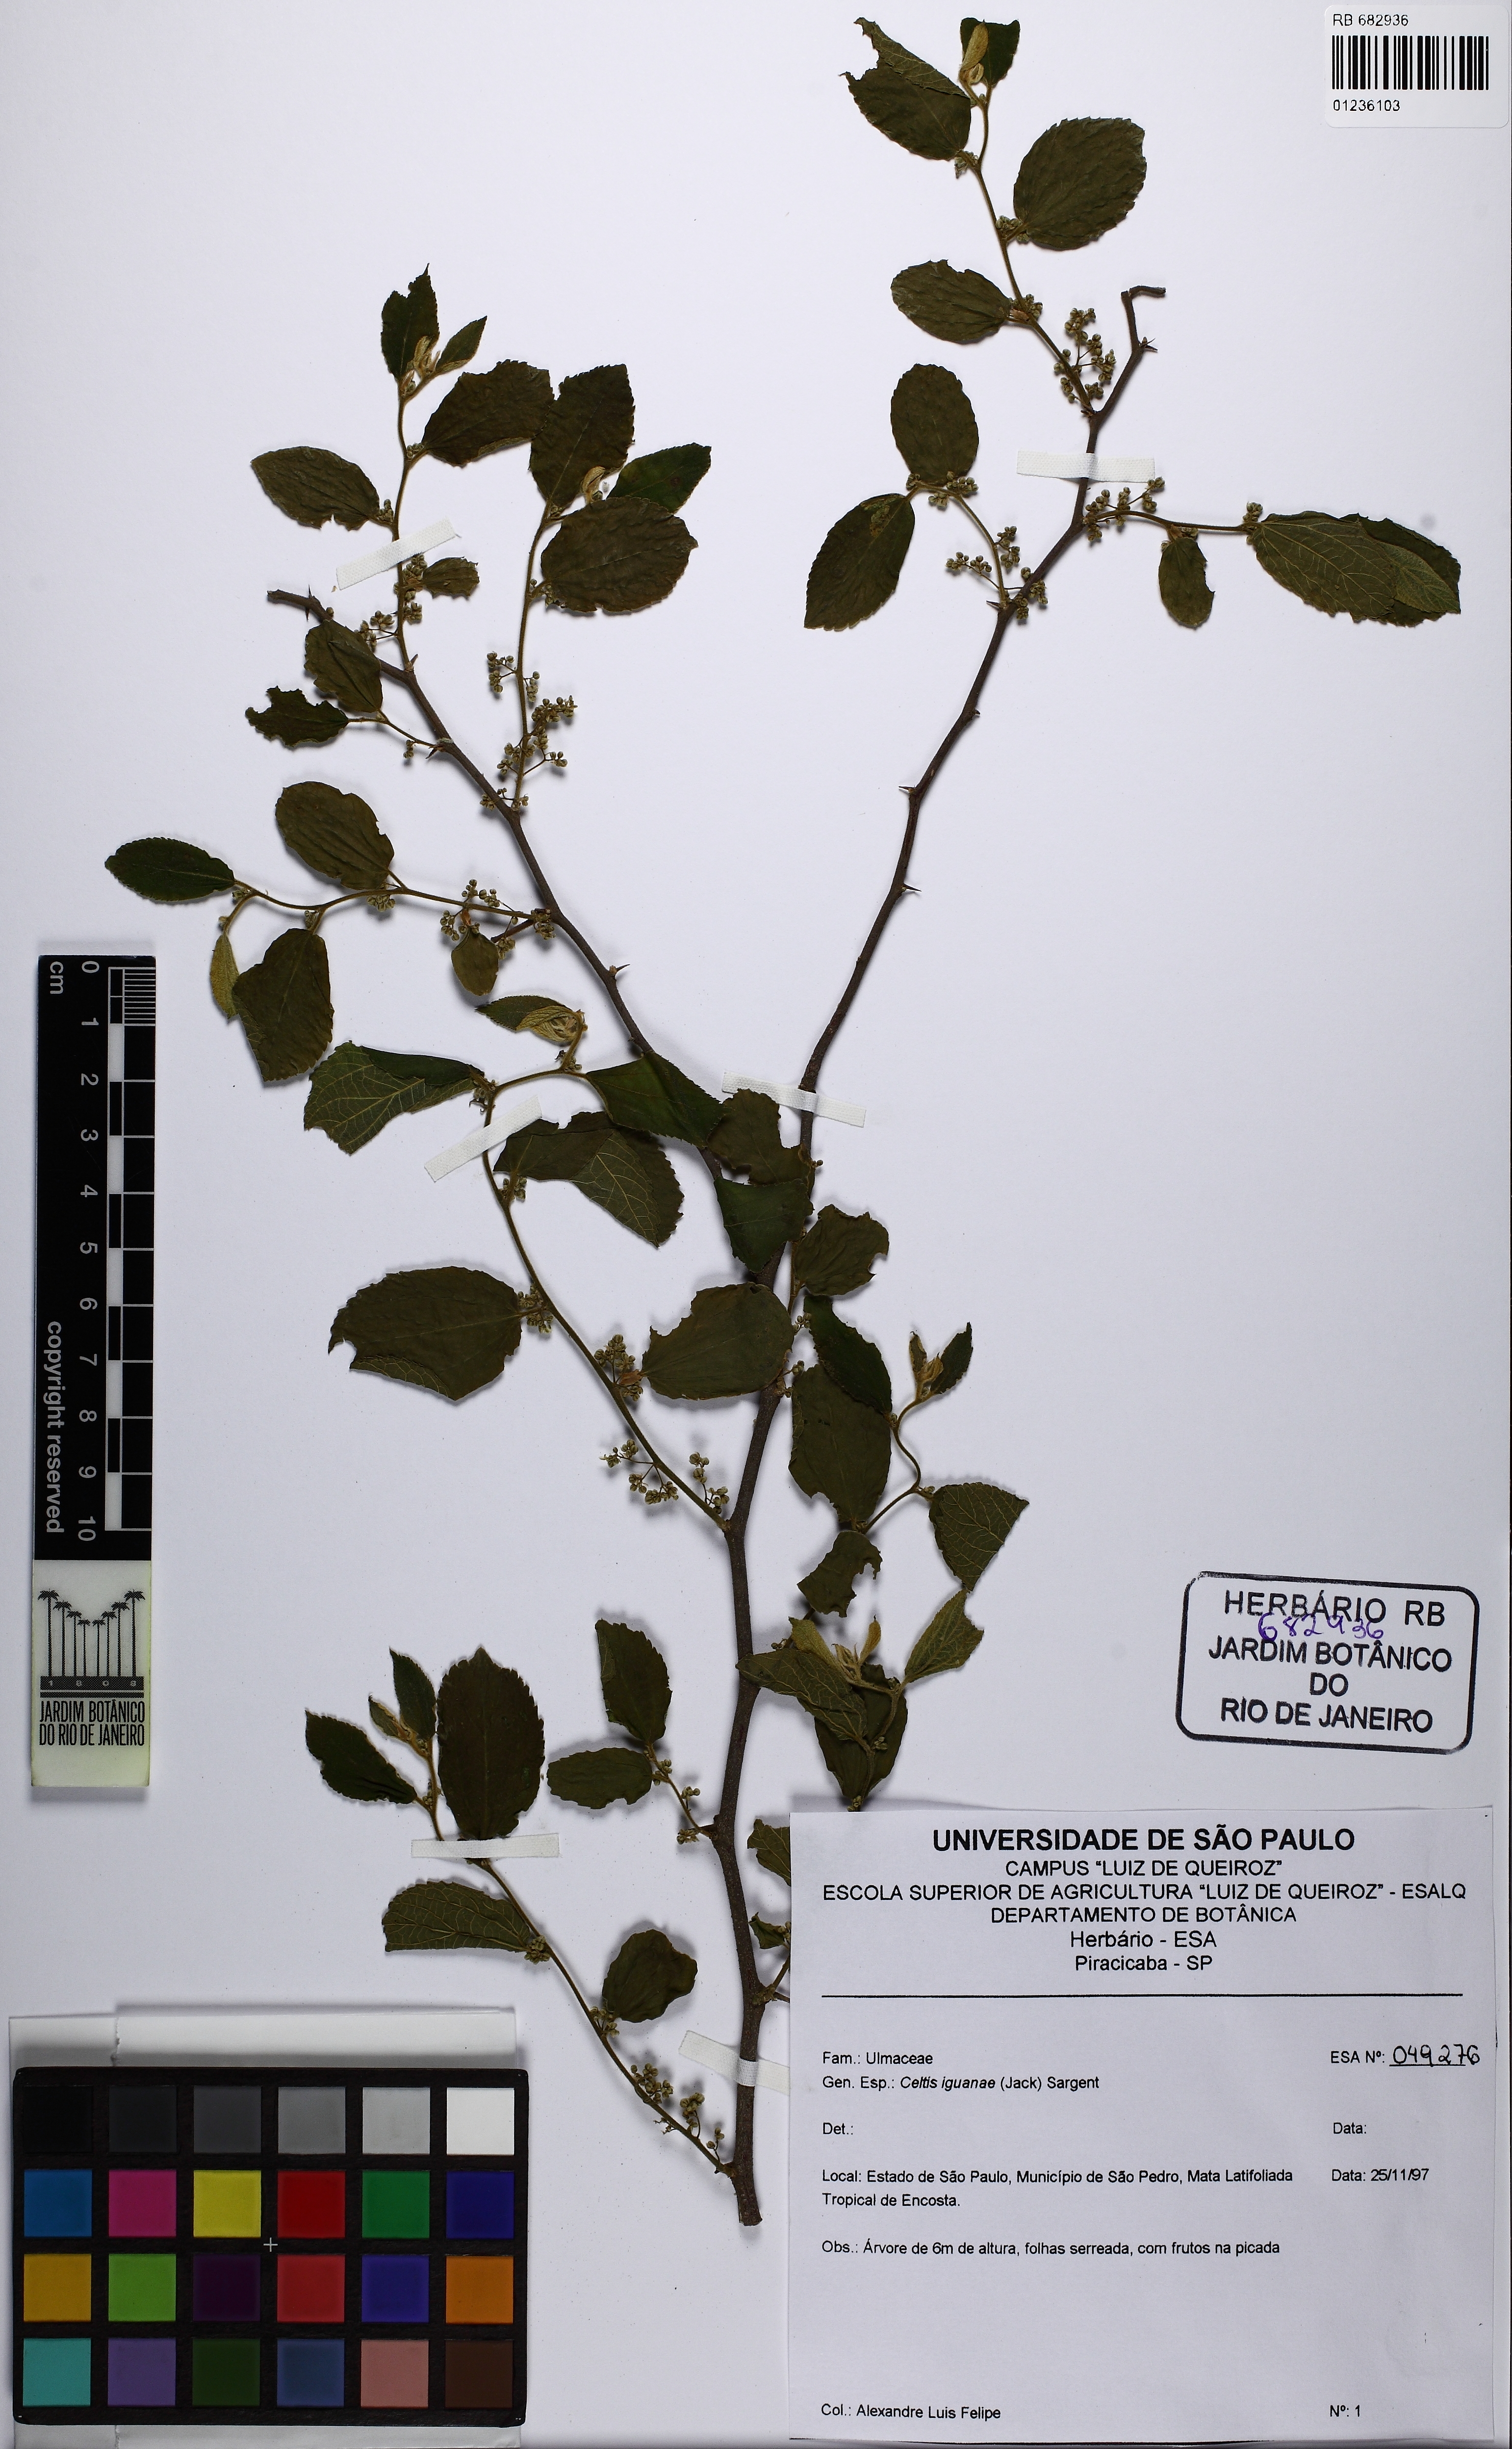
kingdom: Plantae
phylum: Tracheophyta
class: Magnoliopsida
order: Rosales
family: Cannabaceae
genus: Celtis
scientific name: Celtis iguanaea
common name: Iguana hackberry
